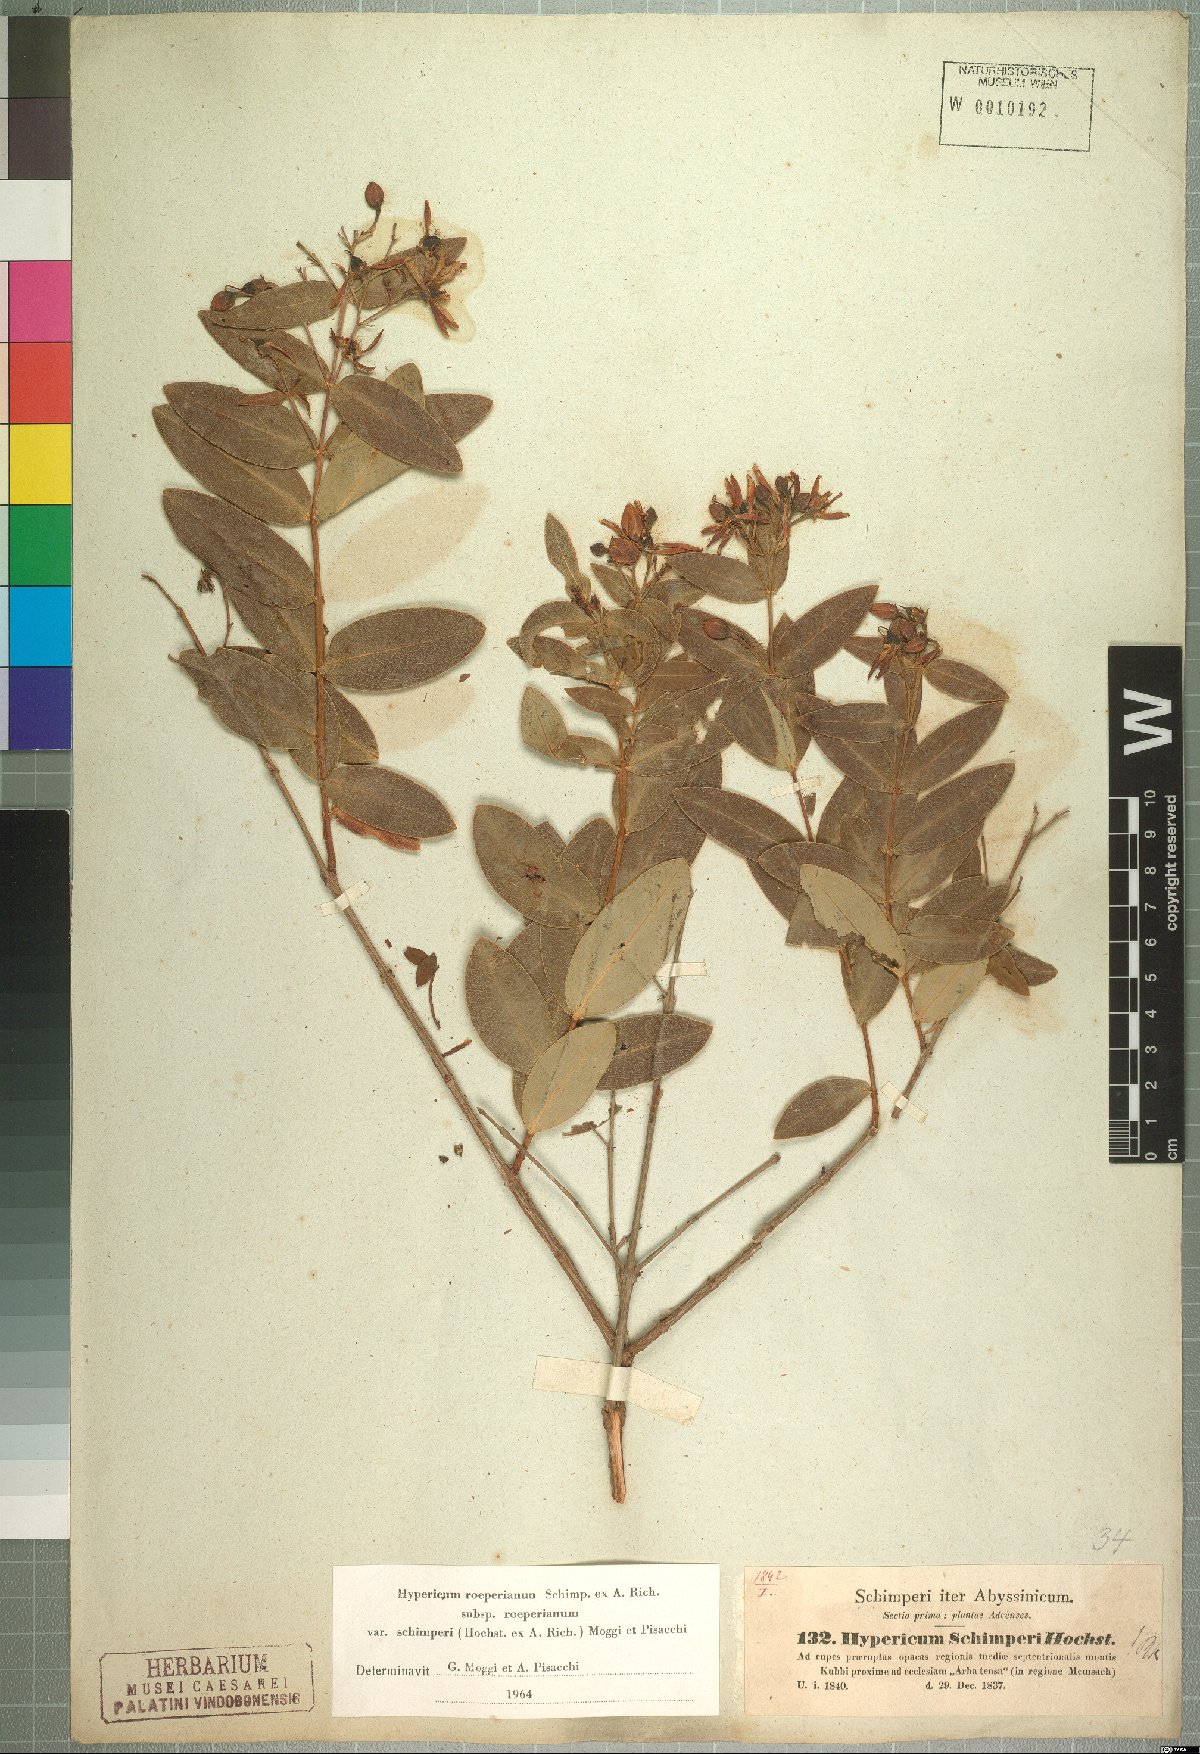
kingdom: Plantae
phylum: Tracheophyta
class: Magnoliopsida
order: Malpighiales
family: Hypericaceae
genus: Hypericum
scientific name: Hypericum roeperianum
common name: Large-leaved curry-bush
